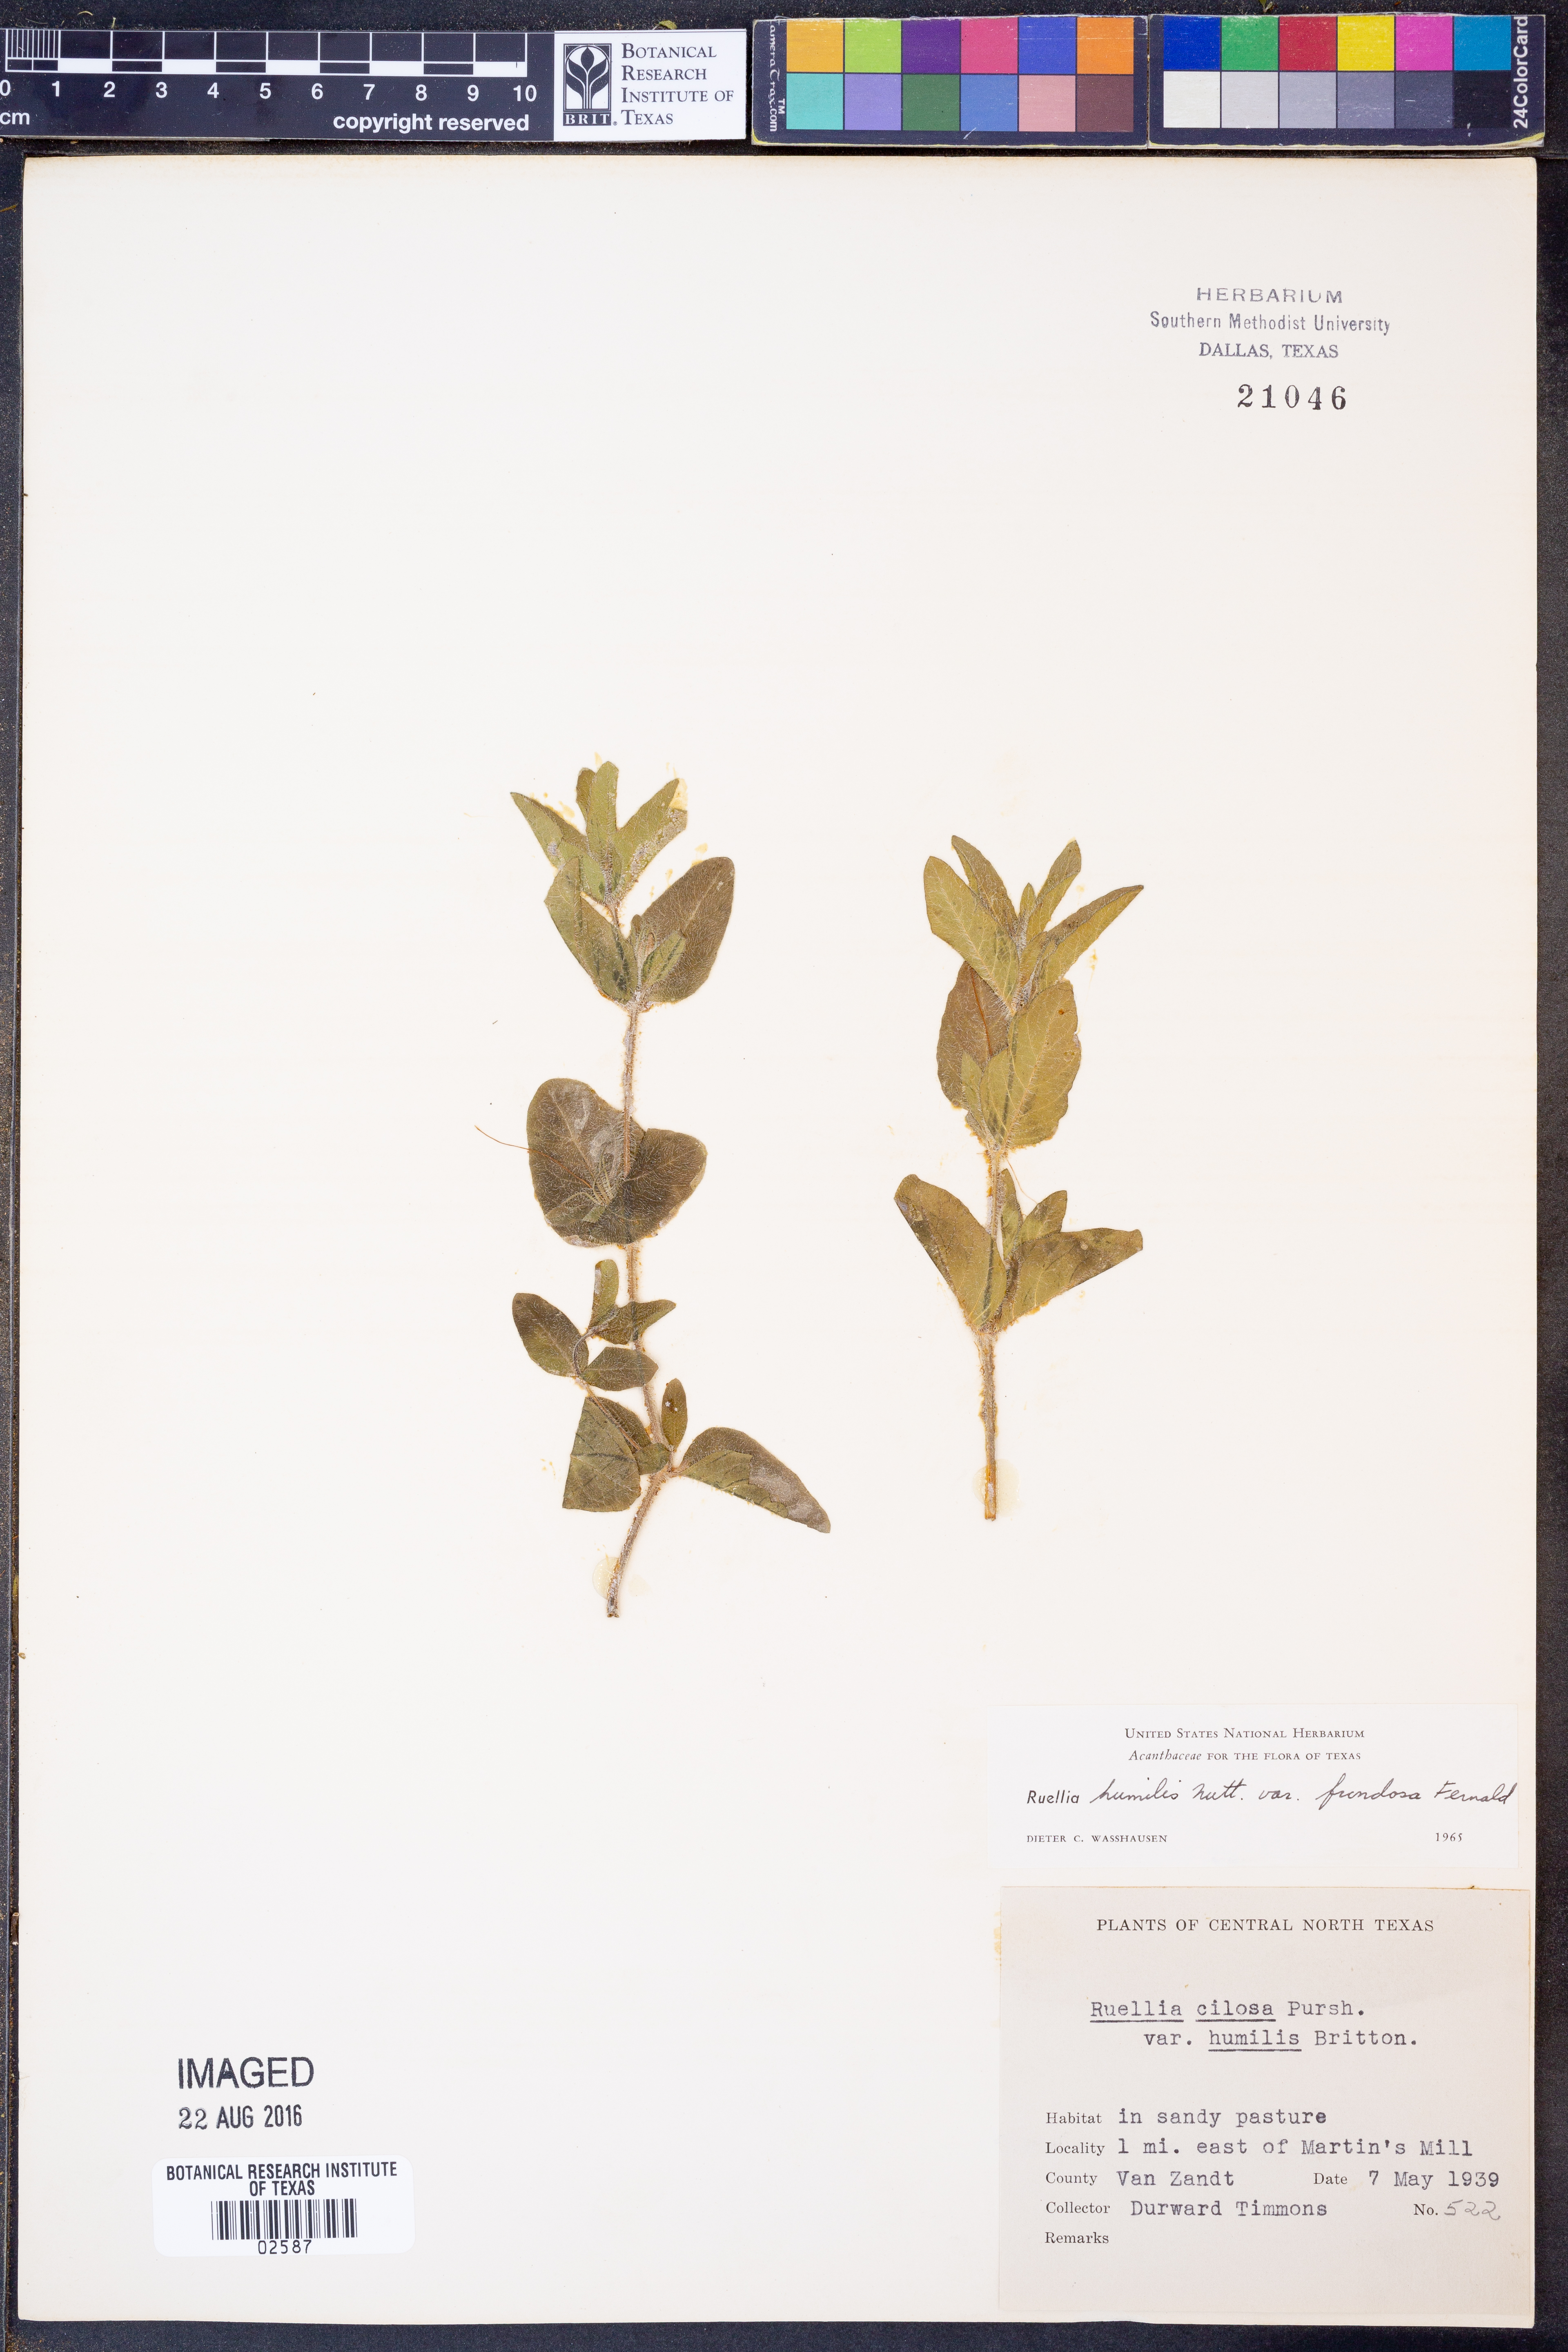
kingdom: Plantae
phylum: Tracheophyta
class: Magnoliopsida
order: Lamiales
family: Acanthaceae
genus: Ruellia
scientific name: Ruellia humilis
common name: Fringe-leaf ruellia
